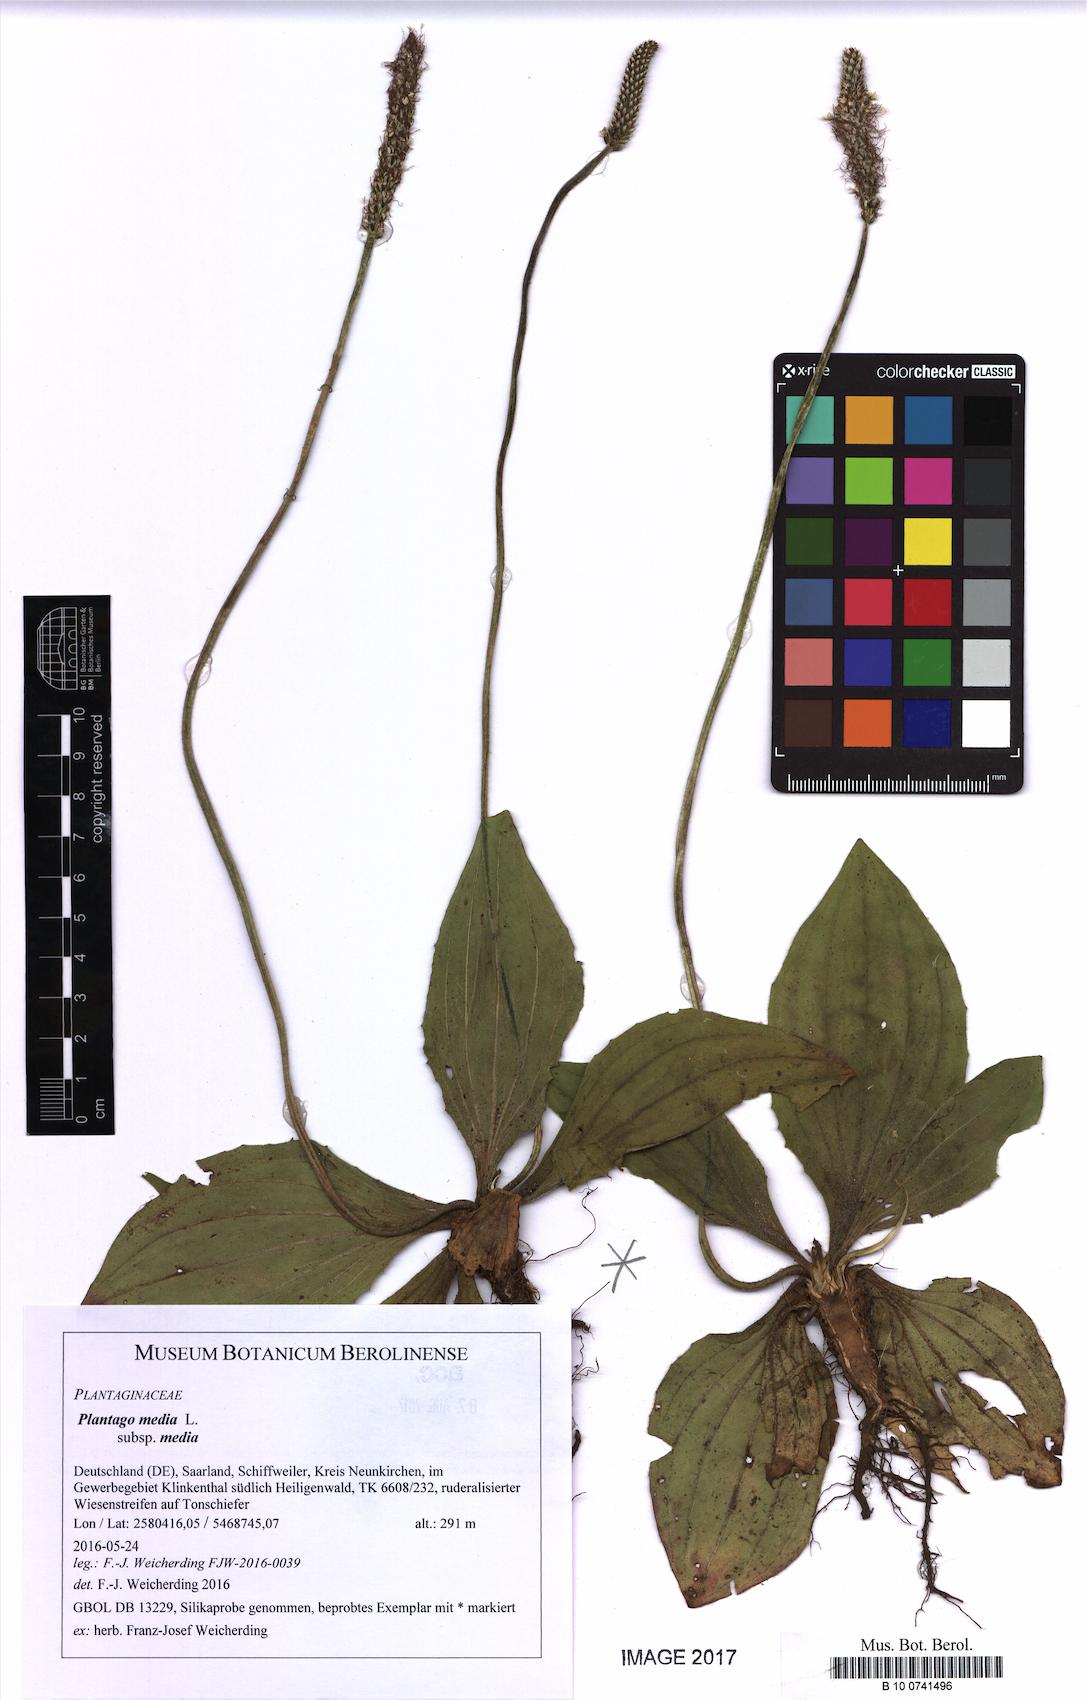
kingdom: Plantae
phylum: Tracheophyta
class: Magnoliopsida
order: Lamiales
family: Plantaginaceae
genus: Plantago
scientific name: Plantago media
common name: Hoary plantain
